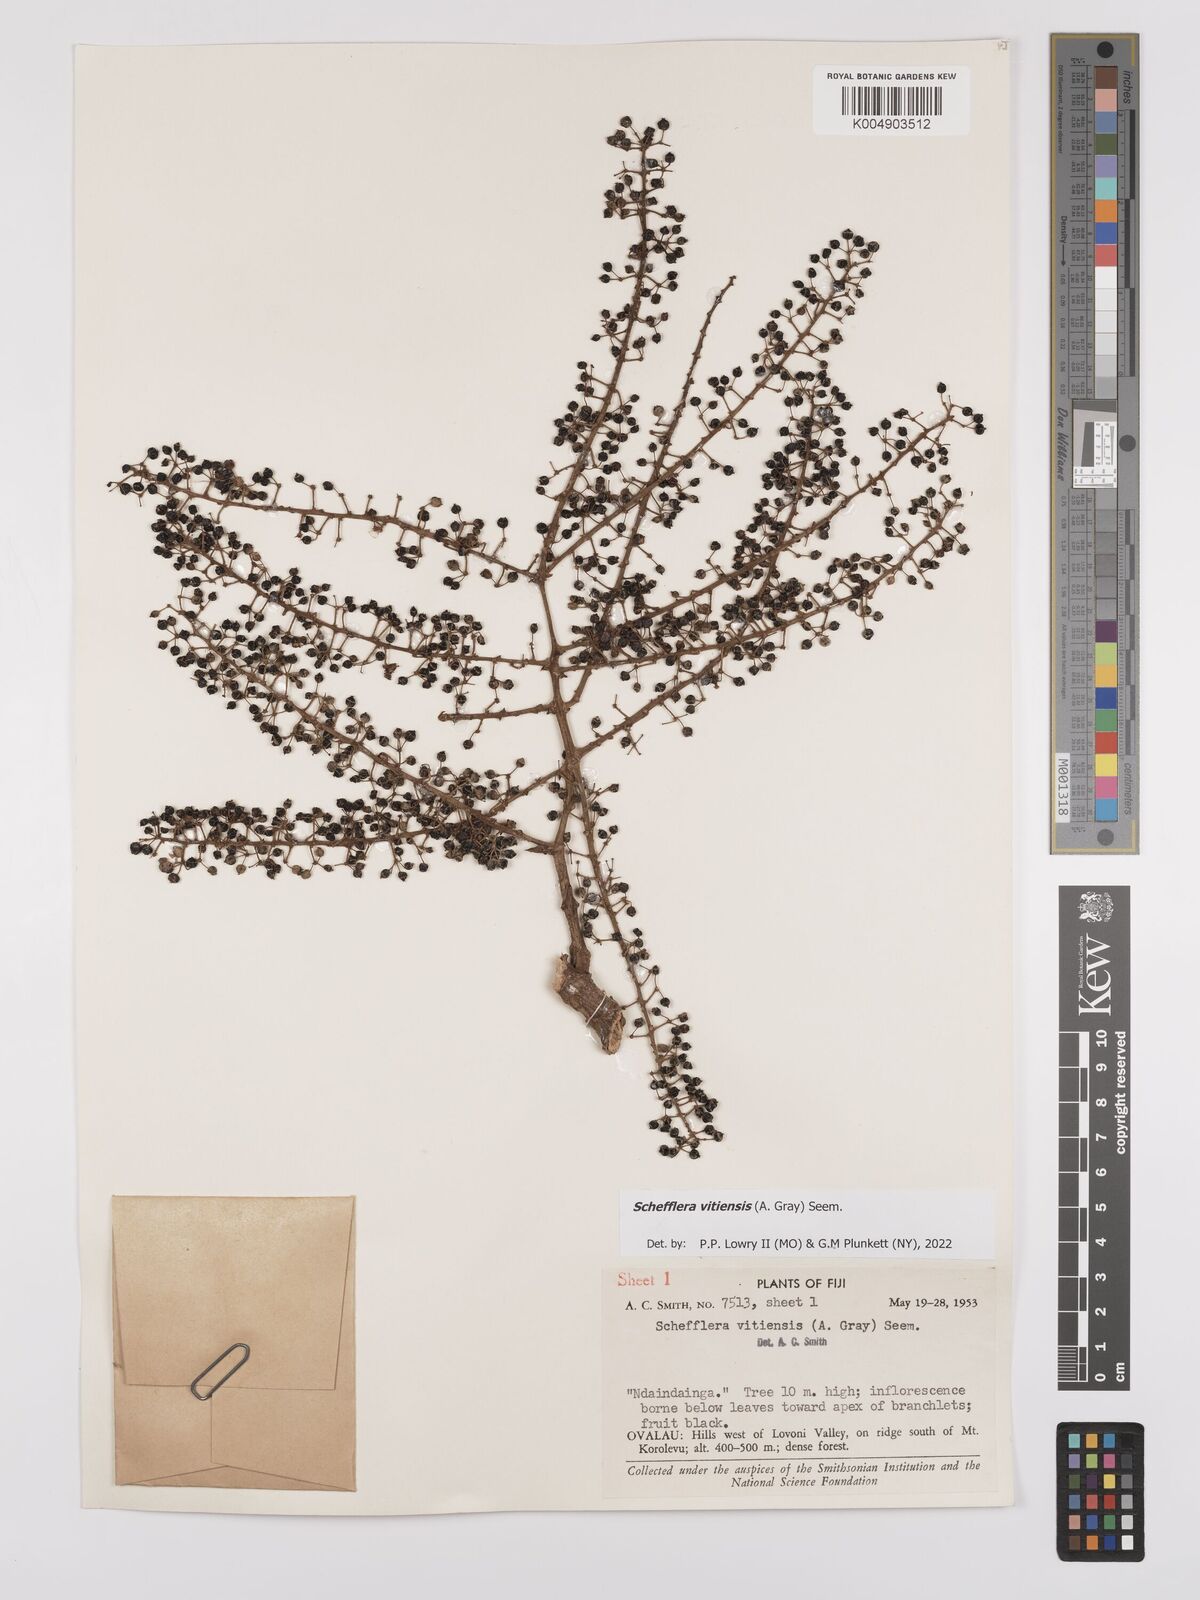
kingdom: Plantae
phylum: Tracheophyta
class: Magnoliopsida
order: Apiales
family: Araliaceae
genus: Schefflera
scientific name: Schefflera vitiensis
